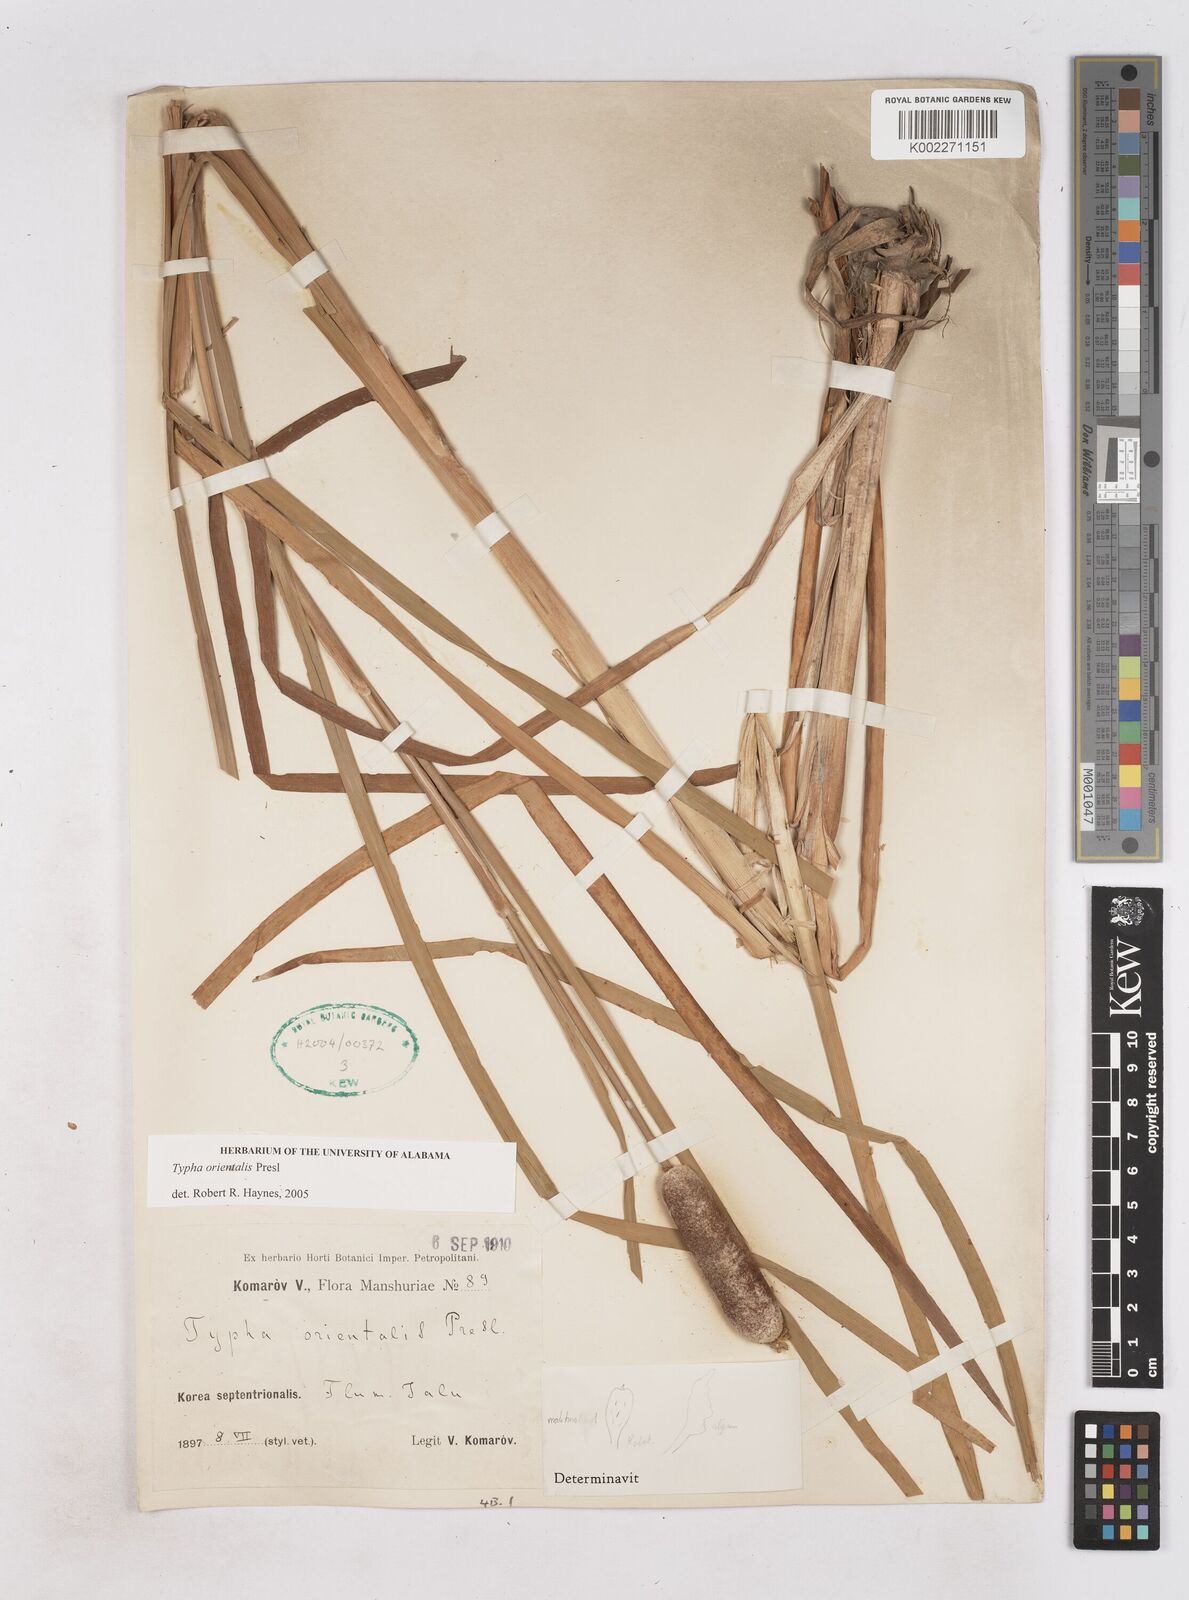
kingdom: Plantae
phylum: Tracheophyta
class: Liliopsida
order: Poales
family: Typhaceae
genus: Typha
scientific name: Typha
